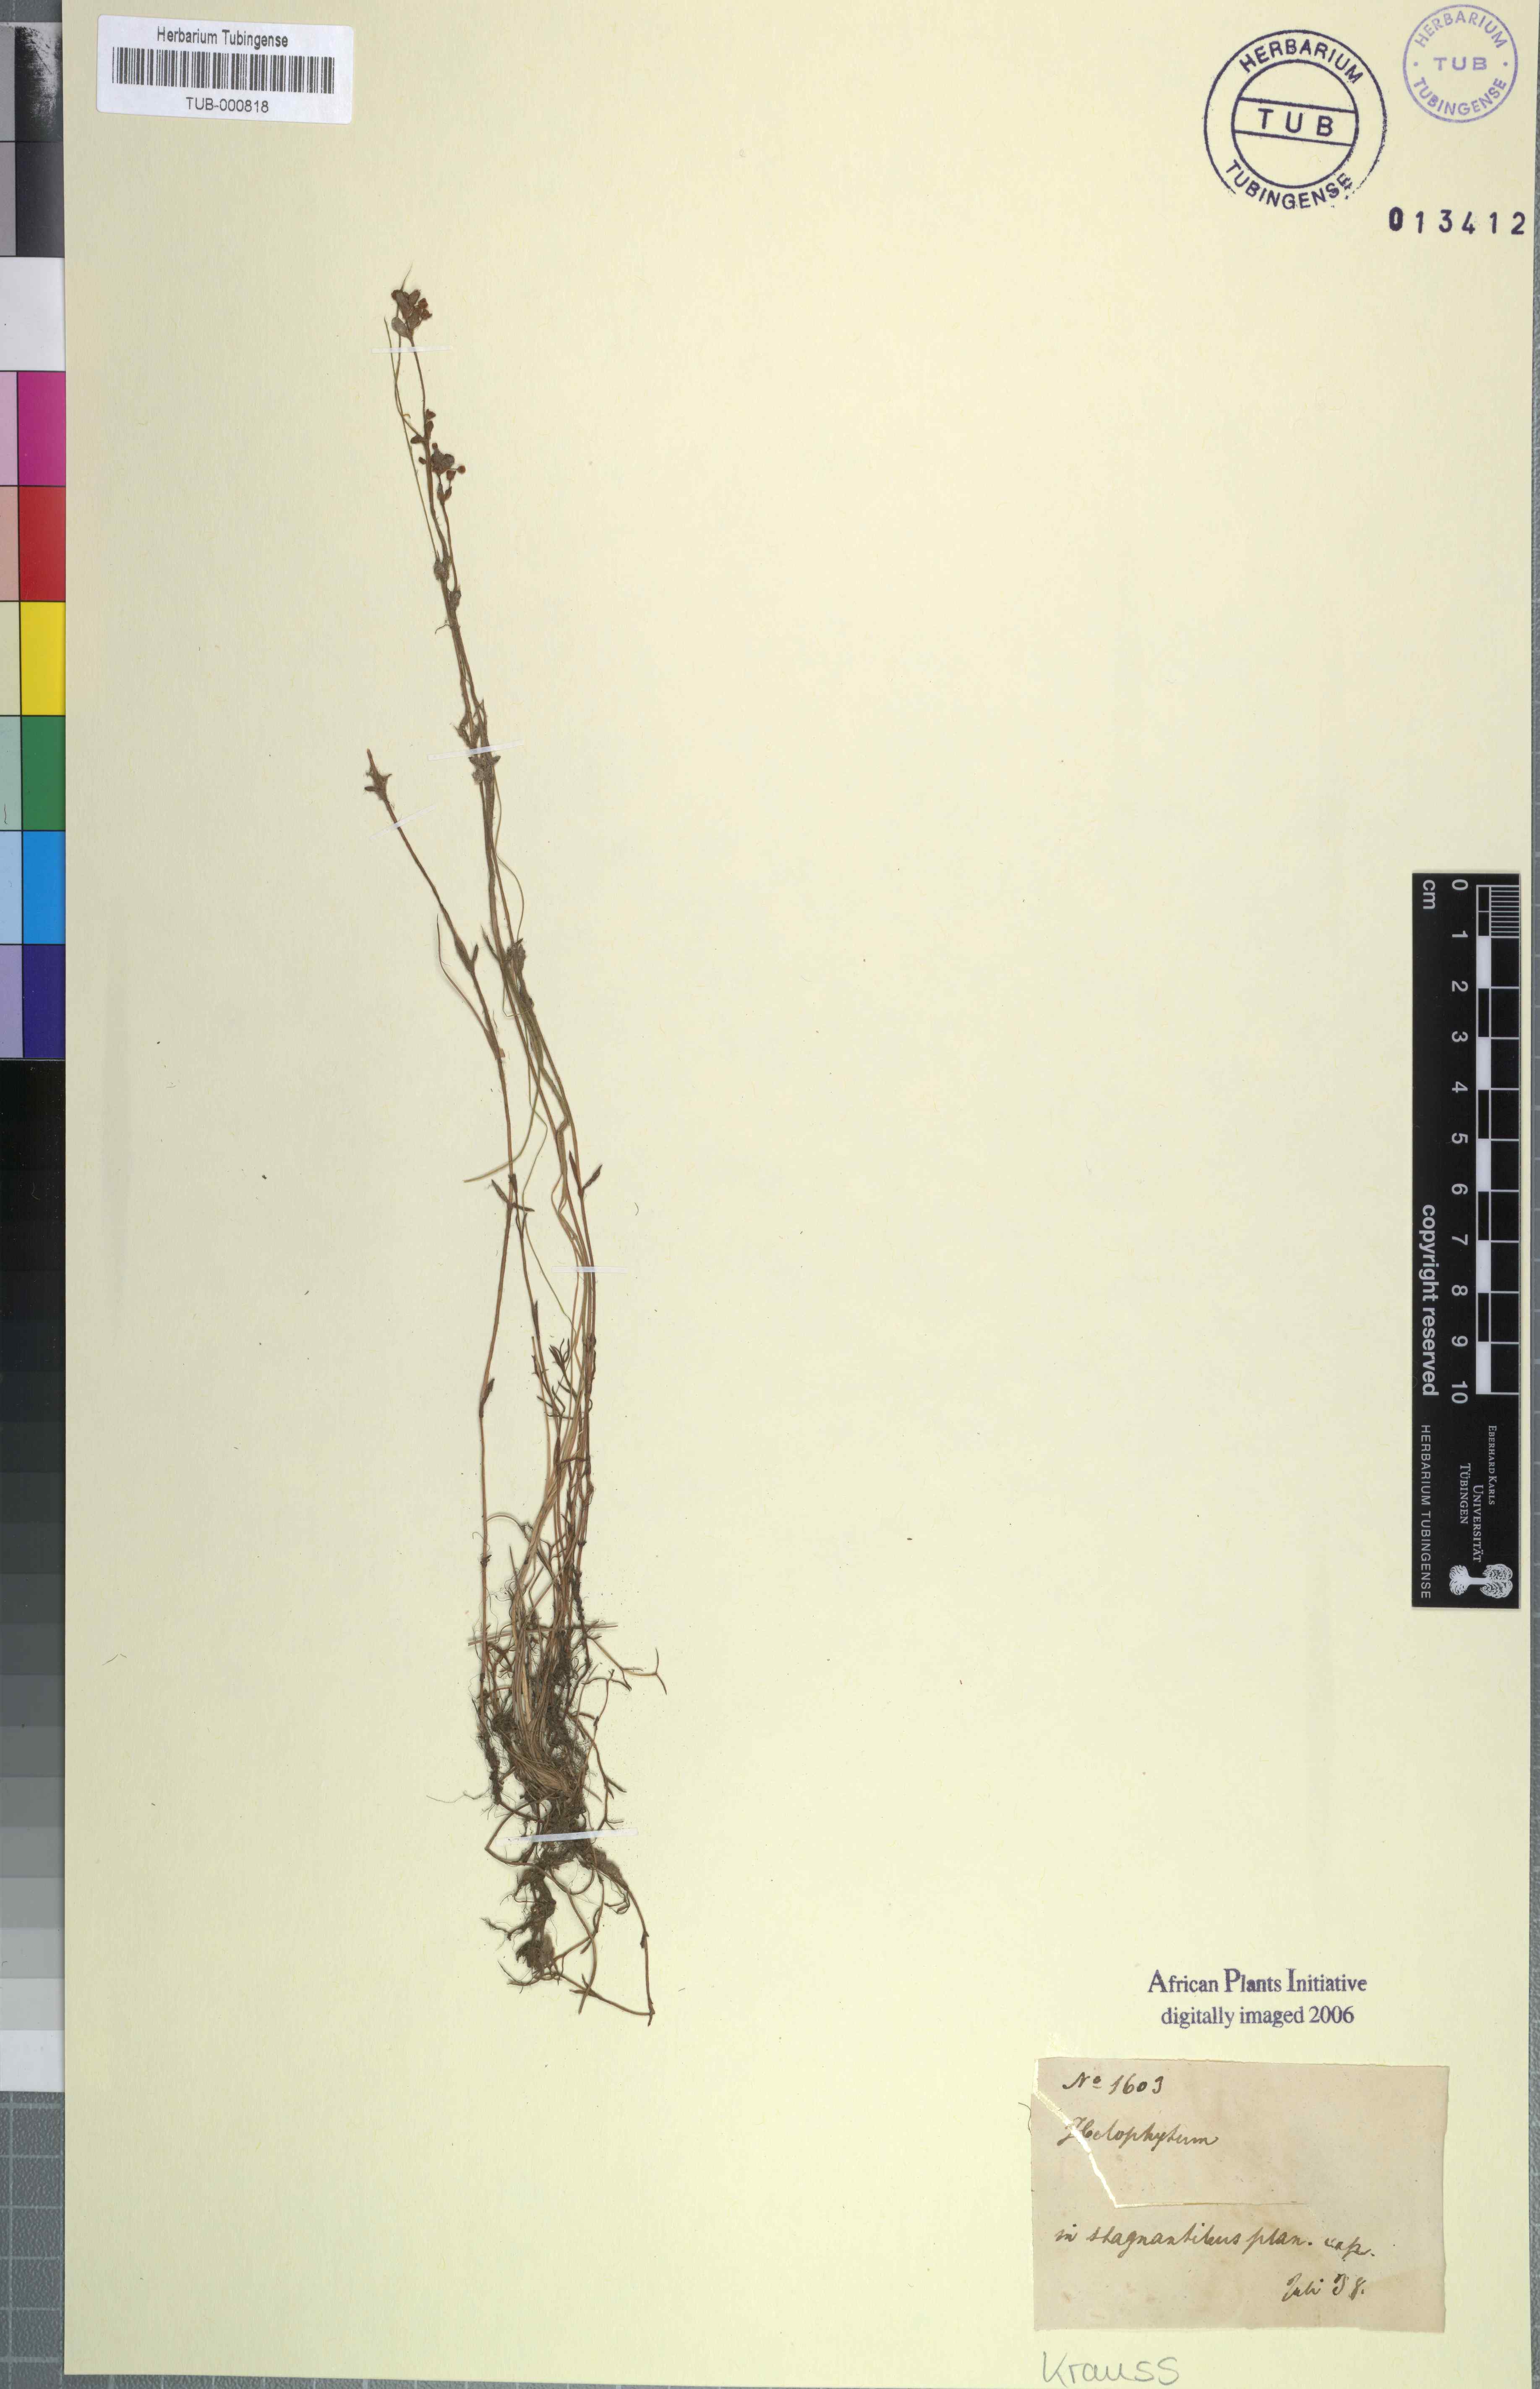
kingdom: Plantae
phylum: Tracheophyta
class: Magnoliopsida
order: Saxifragales
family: Crassulaceae
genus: Crassula
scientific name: Crassula
